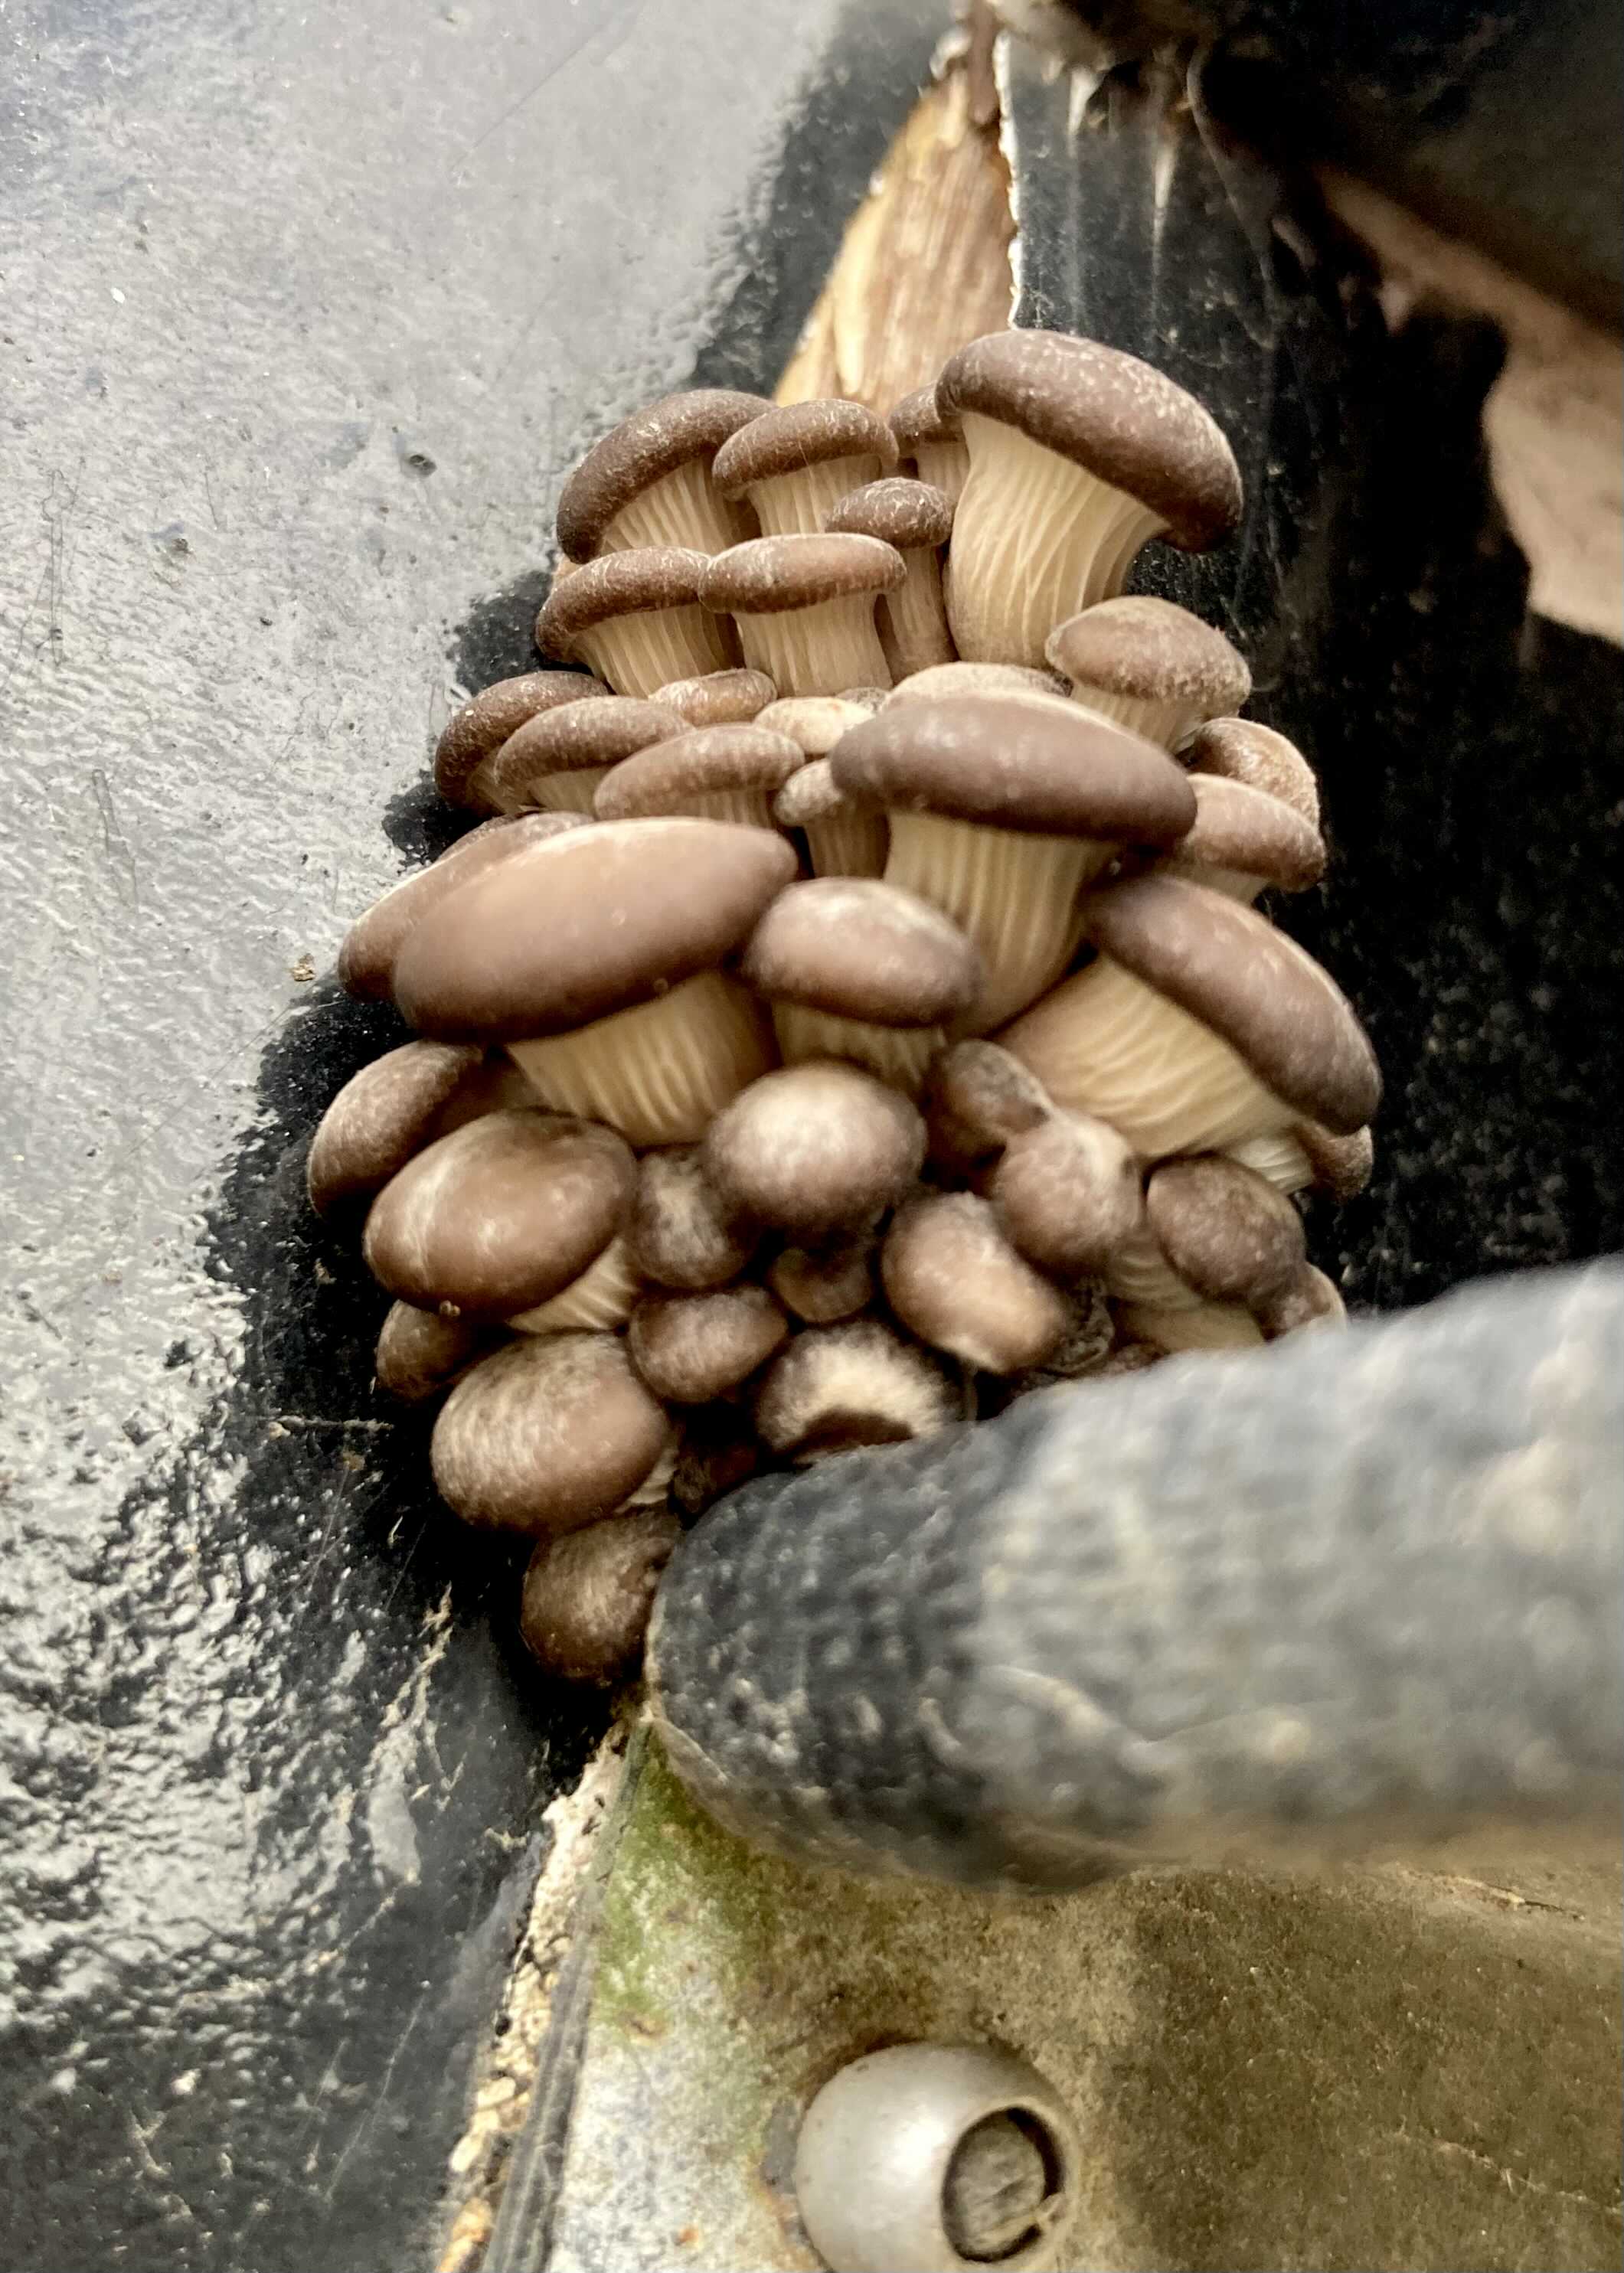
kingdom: Fungi
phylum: Basidiomycota
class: Agaricomycetes
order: Agaricales
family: Pleurotaceae
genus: Pleurotus
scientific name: Pleurotus ostreatus
